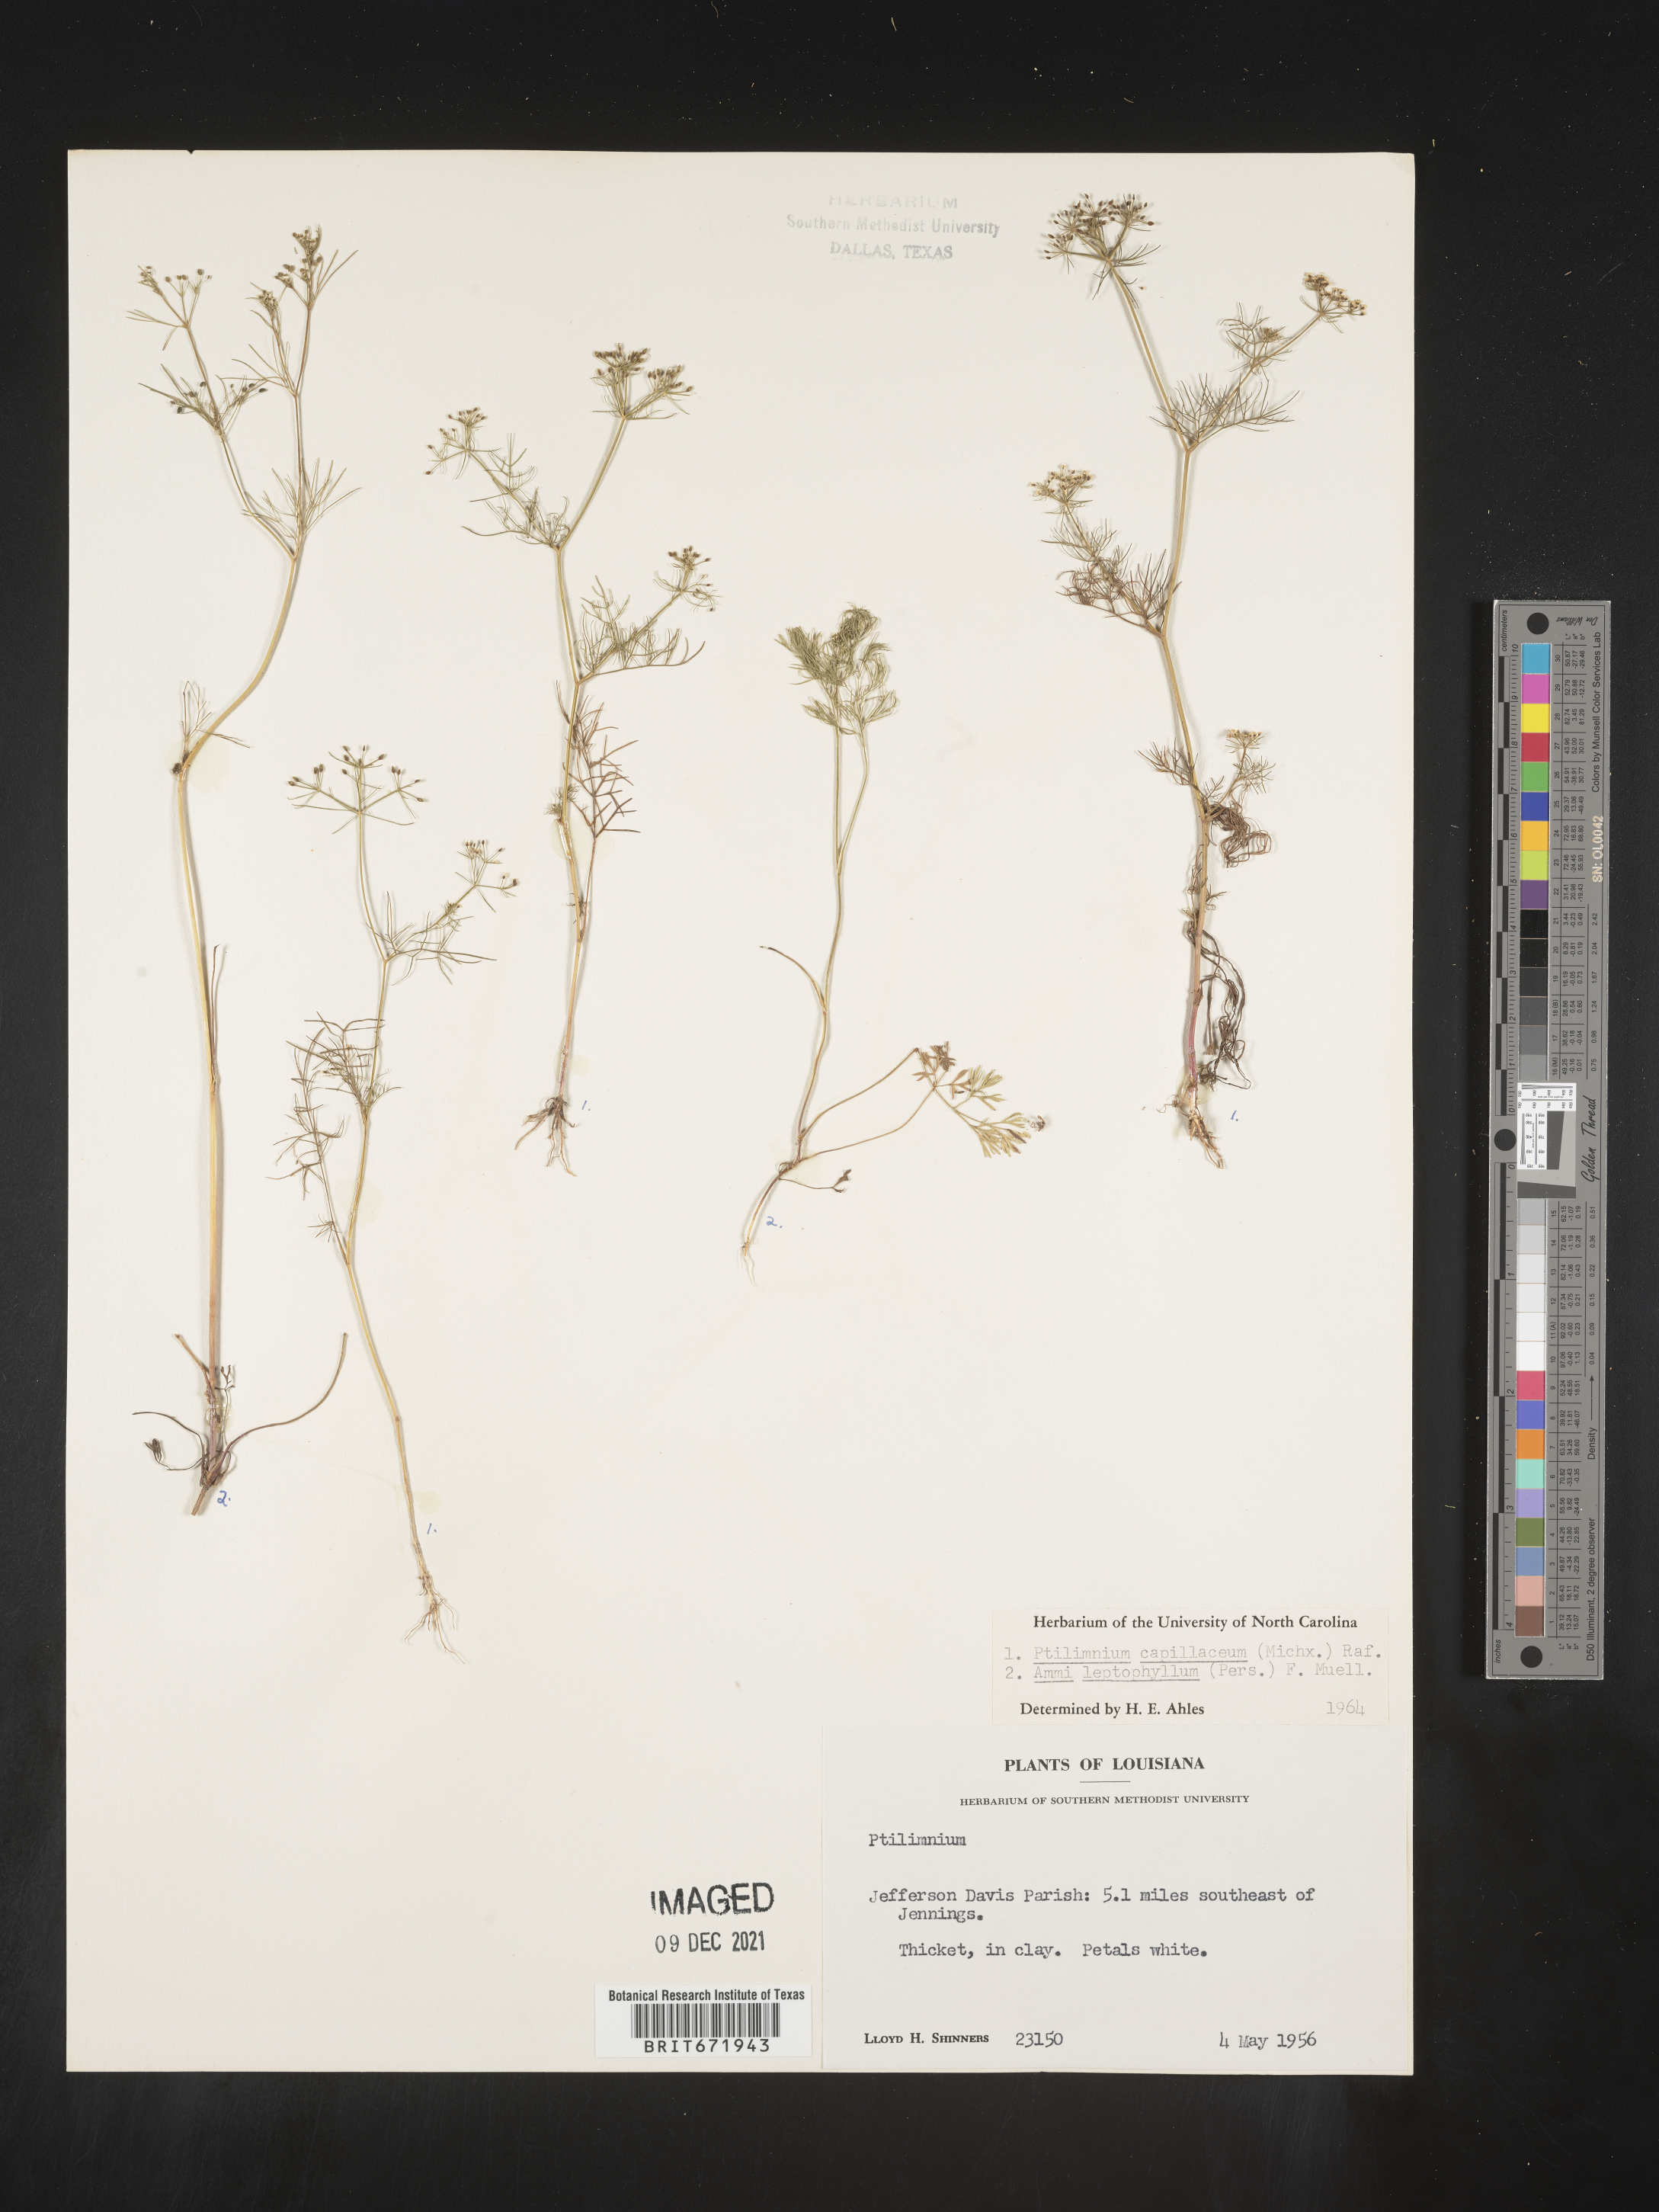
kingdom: Plantae
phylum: Tracheophyta
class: Magnoliopsida
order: Apiales
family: Apiaceae
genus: Ptilimnium
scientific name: Ptilimnium capillaceum
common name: Herbwilliam
